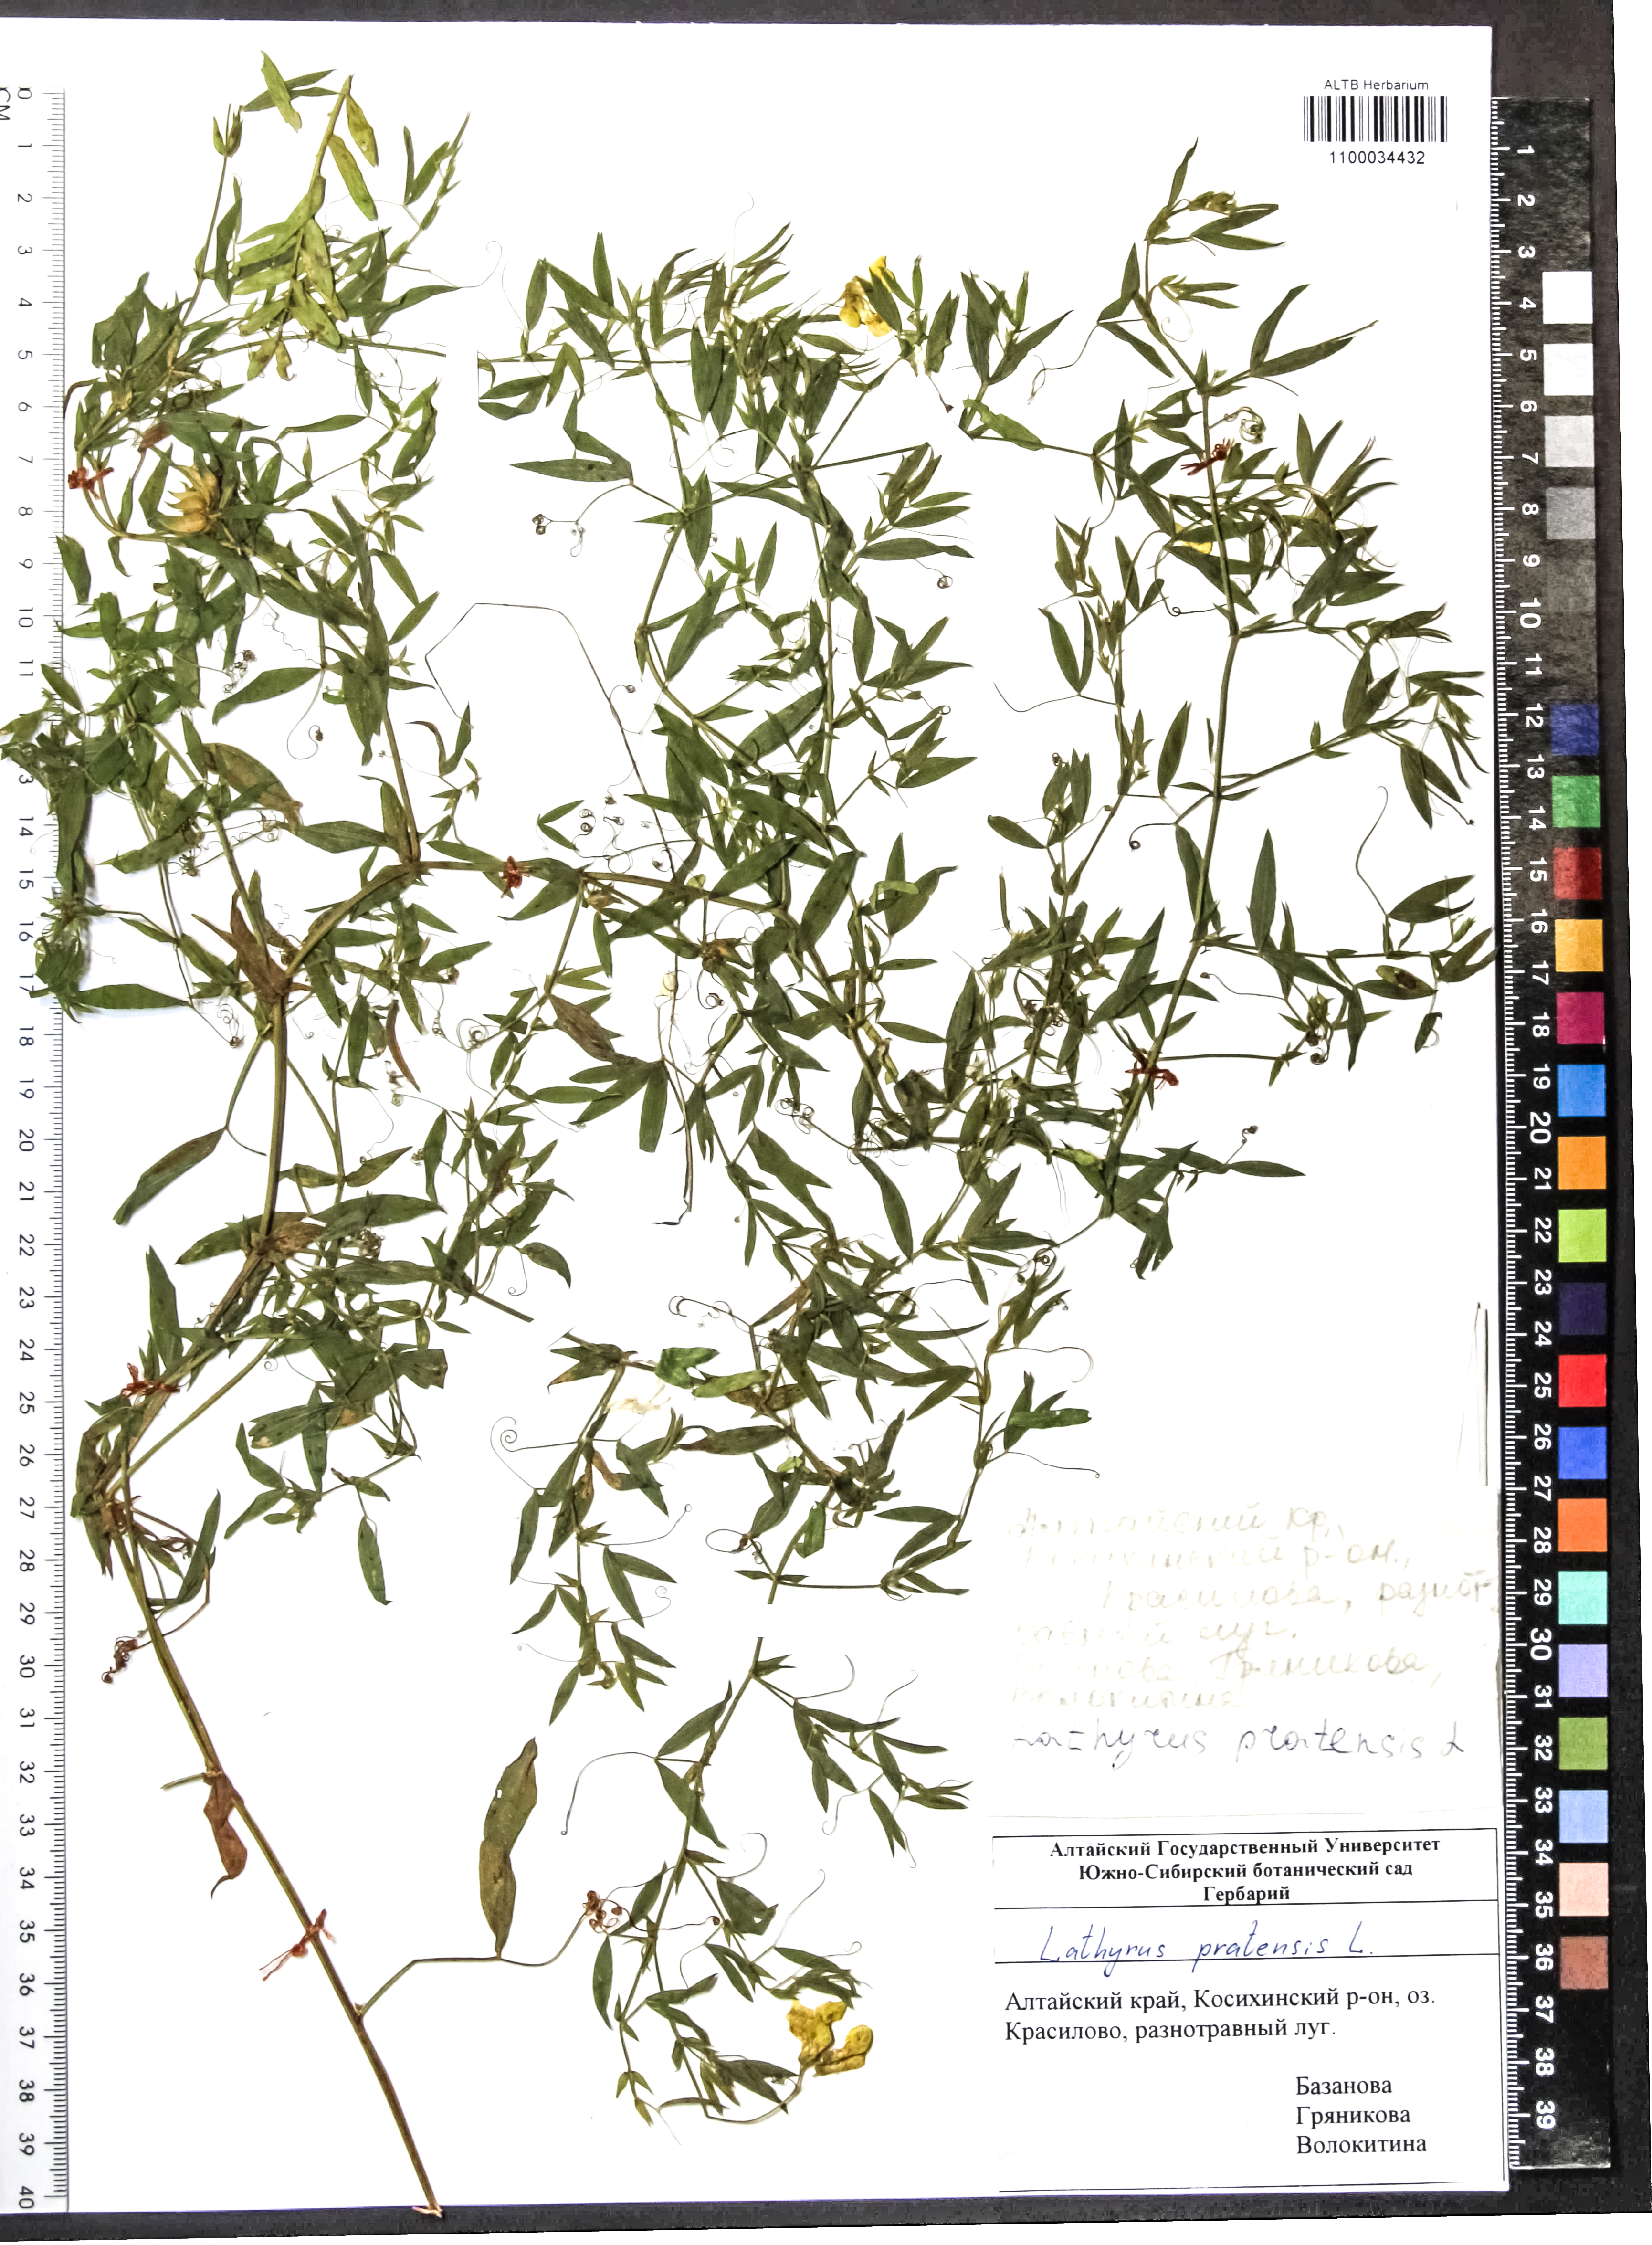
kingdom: Plantae
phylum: Tracheophyta
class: Magnoliopsida
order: Fabales
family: Fabaceae
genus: Lathyrus
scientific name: Lathyrus pratensis
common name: Meadow vetchling
